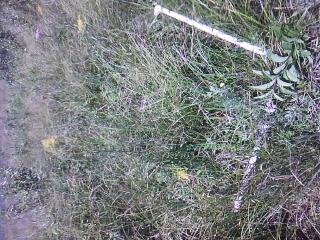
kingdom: Plantae
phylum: Tracheophyta
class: Liliopsida
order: Poales
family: Cyperaceae
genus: Carex
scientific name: Carex aquatilis
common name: Water sedge
